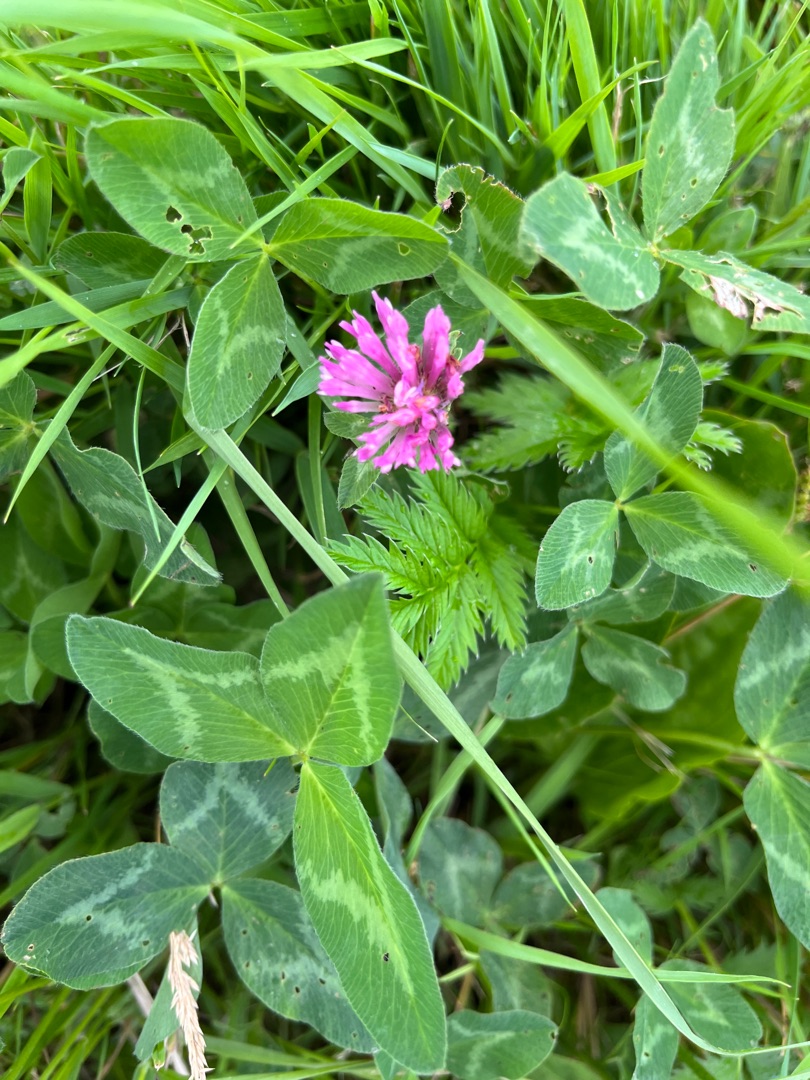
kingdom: Plantae
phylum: Tracheophyta
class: Magnoliopsida
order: Fabales
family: Fabaceae
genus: Trifolium
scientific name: Trifolium pratense
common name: Rød-kløver
